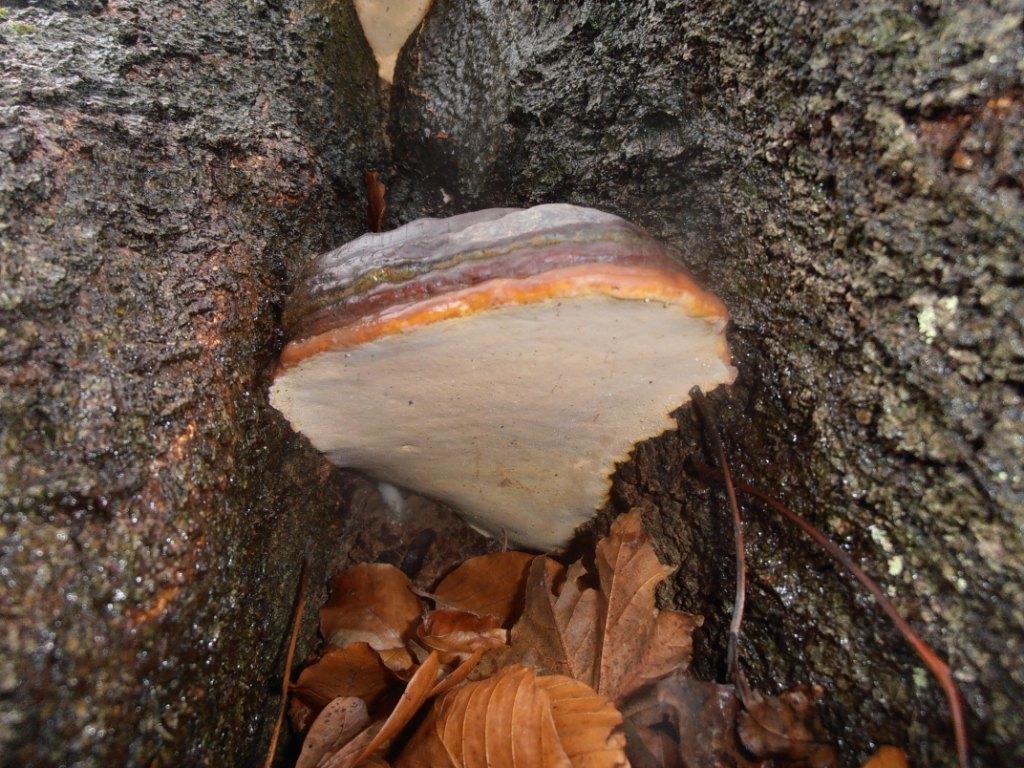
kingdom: Fungi
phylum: Basidiomycota
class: Agaricomycetes
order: Polyporales
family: Polyporaceae
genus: Ganoderma
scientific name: Ganoderma pfeifferi
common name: kobberrød lakporesvamp
